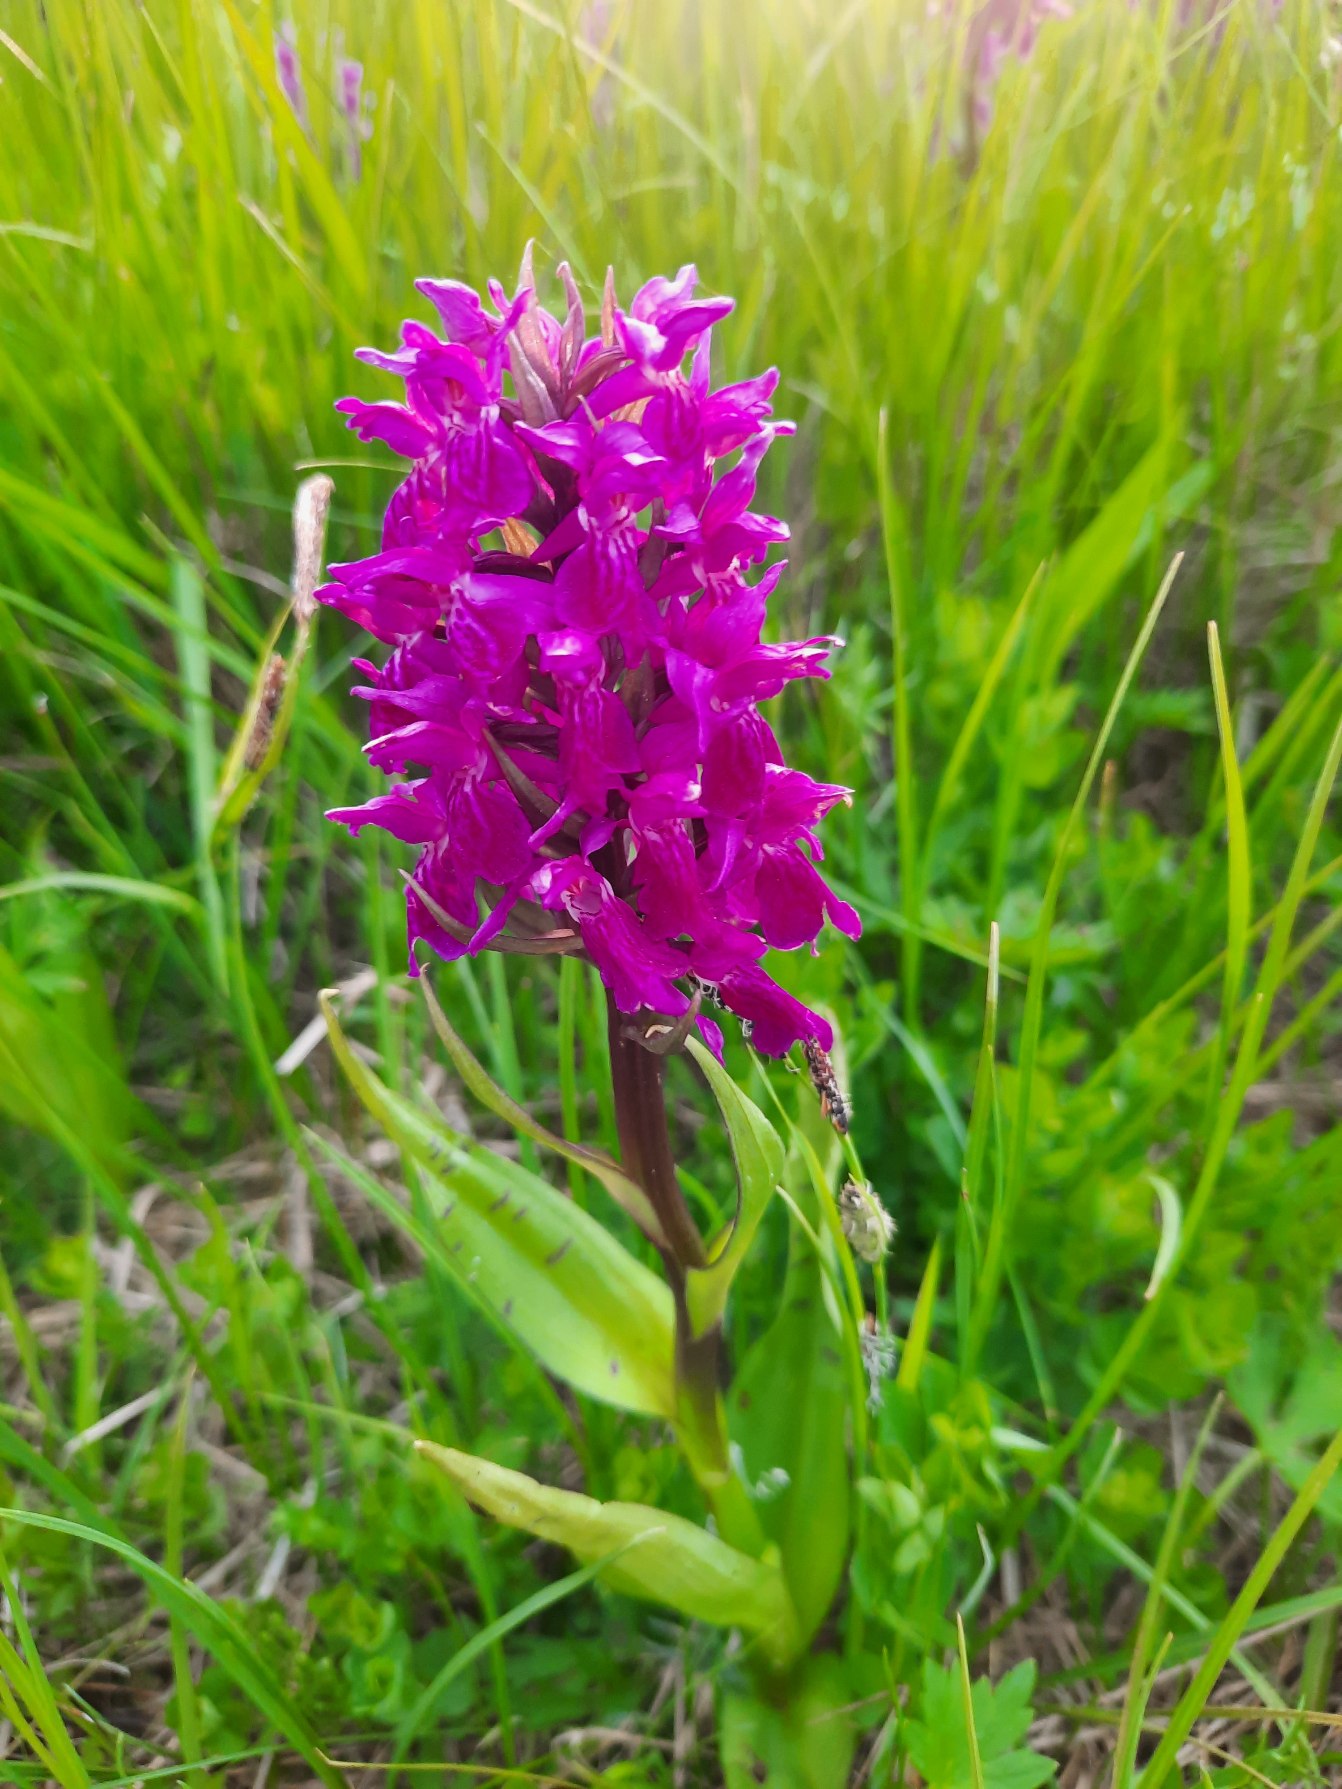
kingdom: Plantae
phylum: Tracheophyta
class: Liliopsida
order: Asparagales
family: Orchidaceae
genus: Dactylorhiza
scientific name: Dactylorhiza majalis
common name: Maj-gøgeurt
